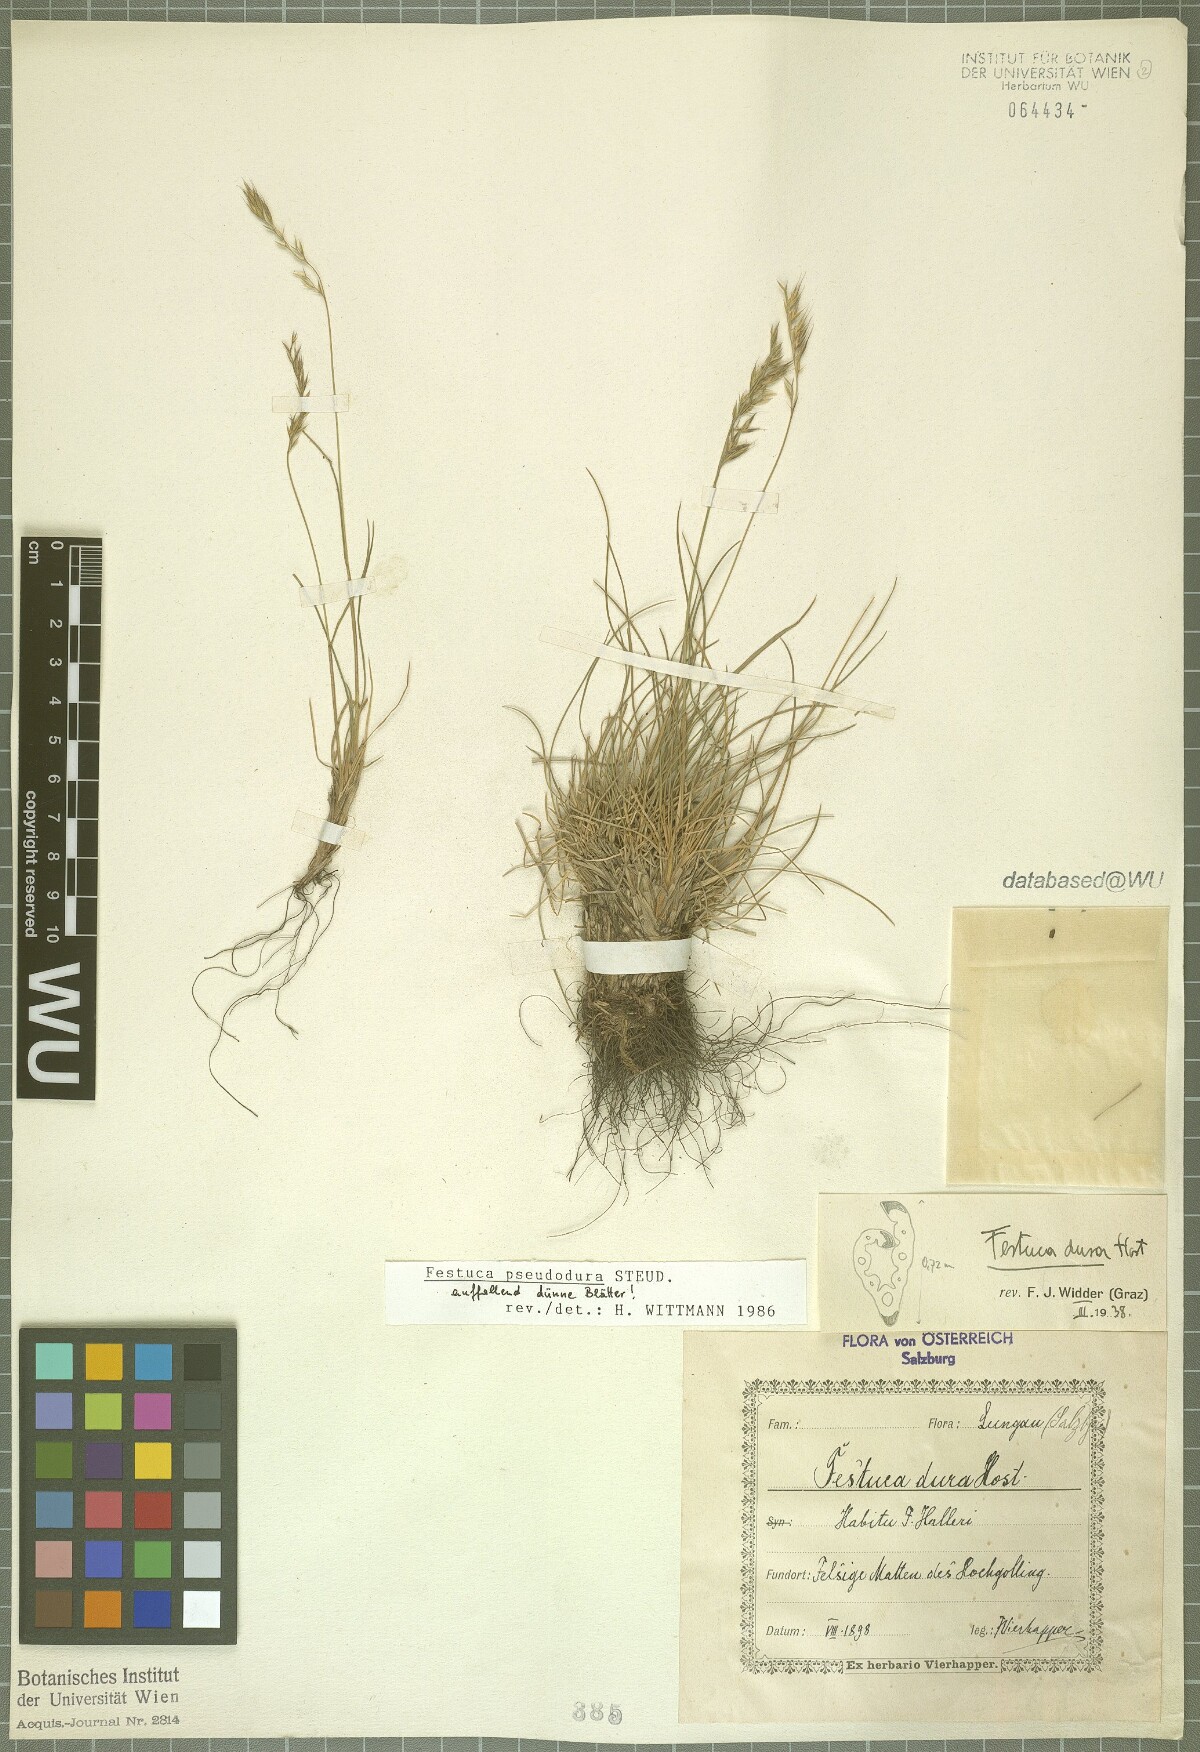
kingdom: Plantae
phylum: Tracheophyta
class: Liliopsida
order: Poales
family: Poaceae
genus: Festuca
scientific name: Festuca pseudodura
